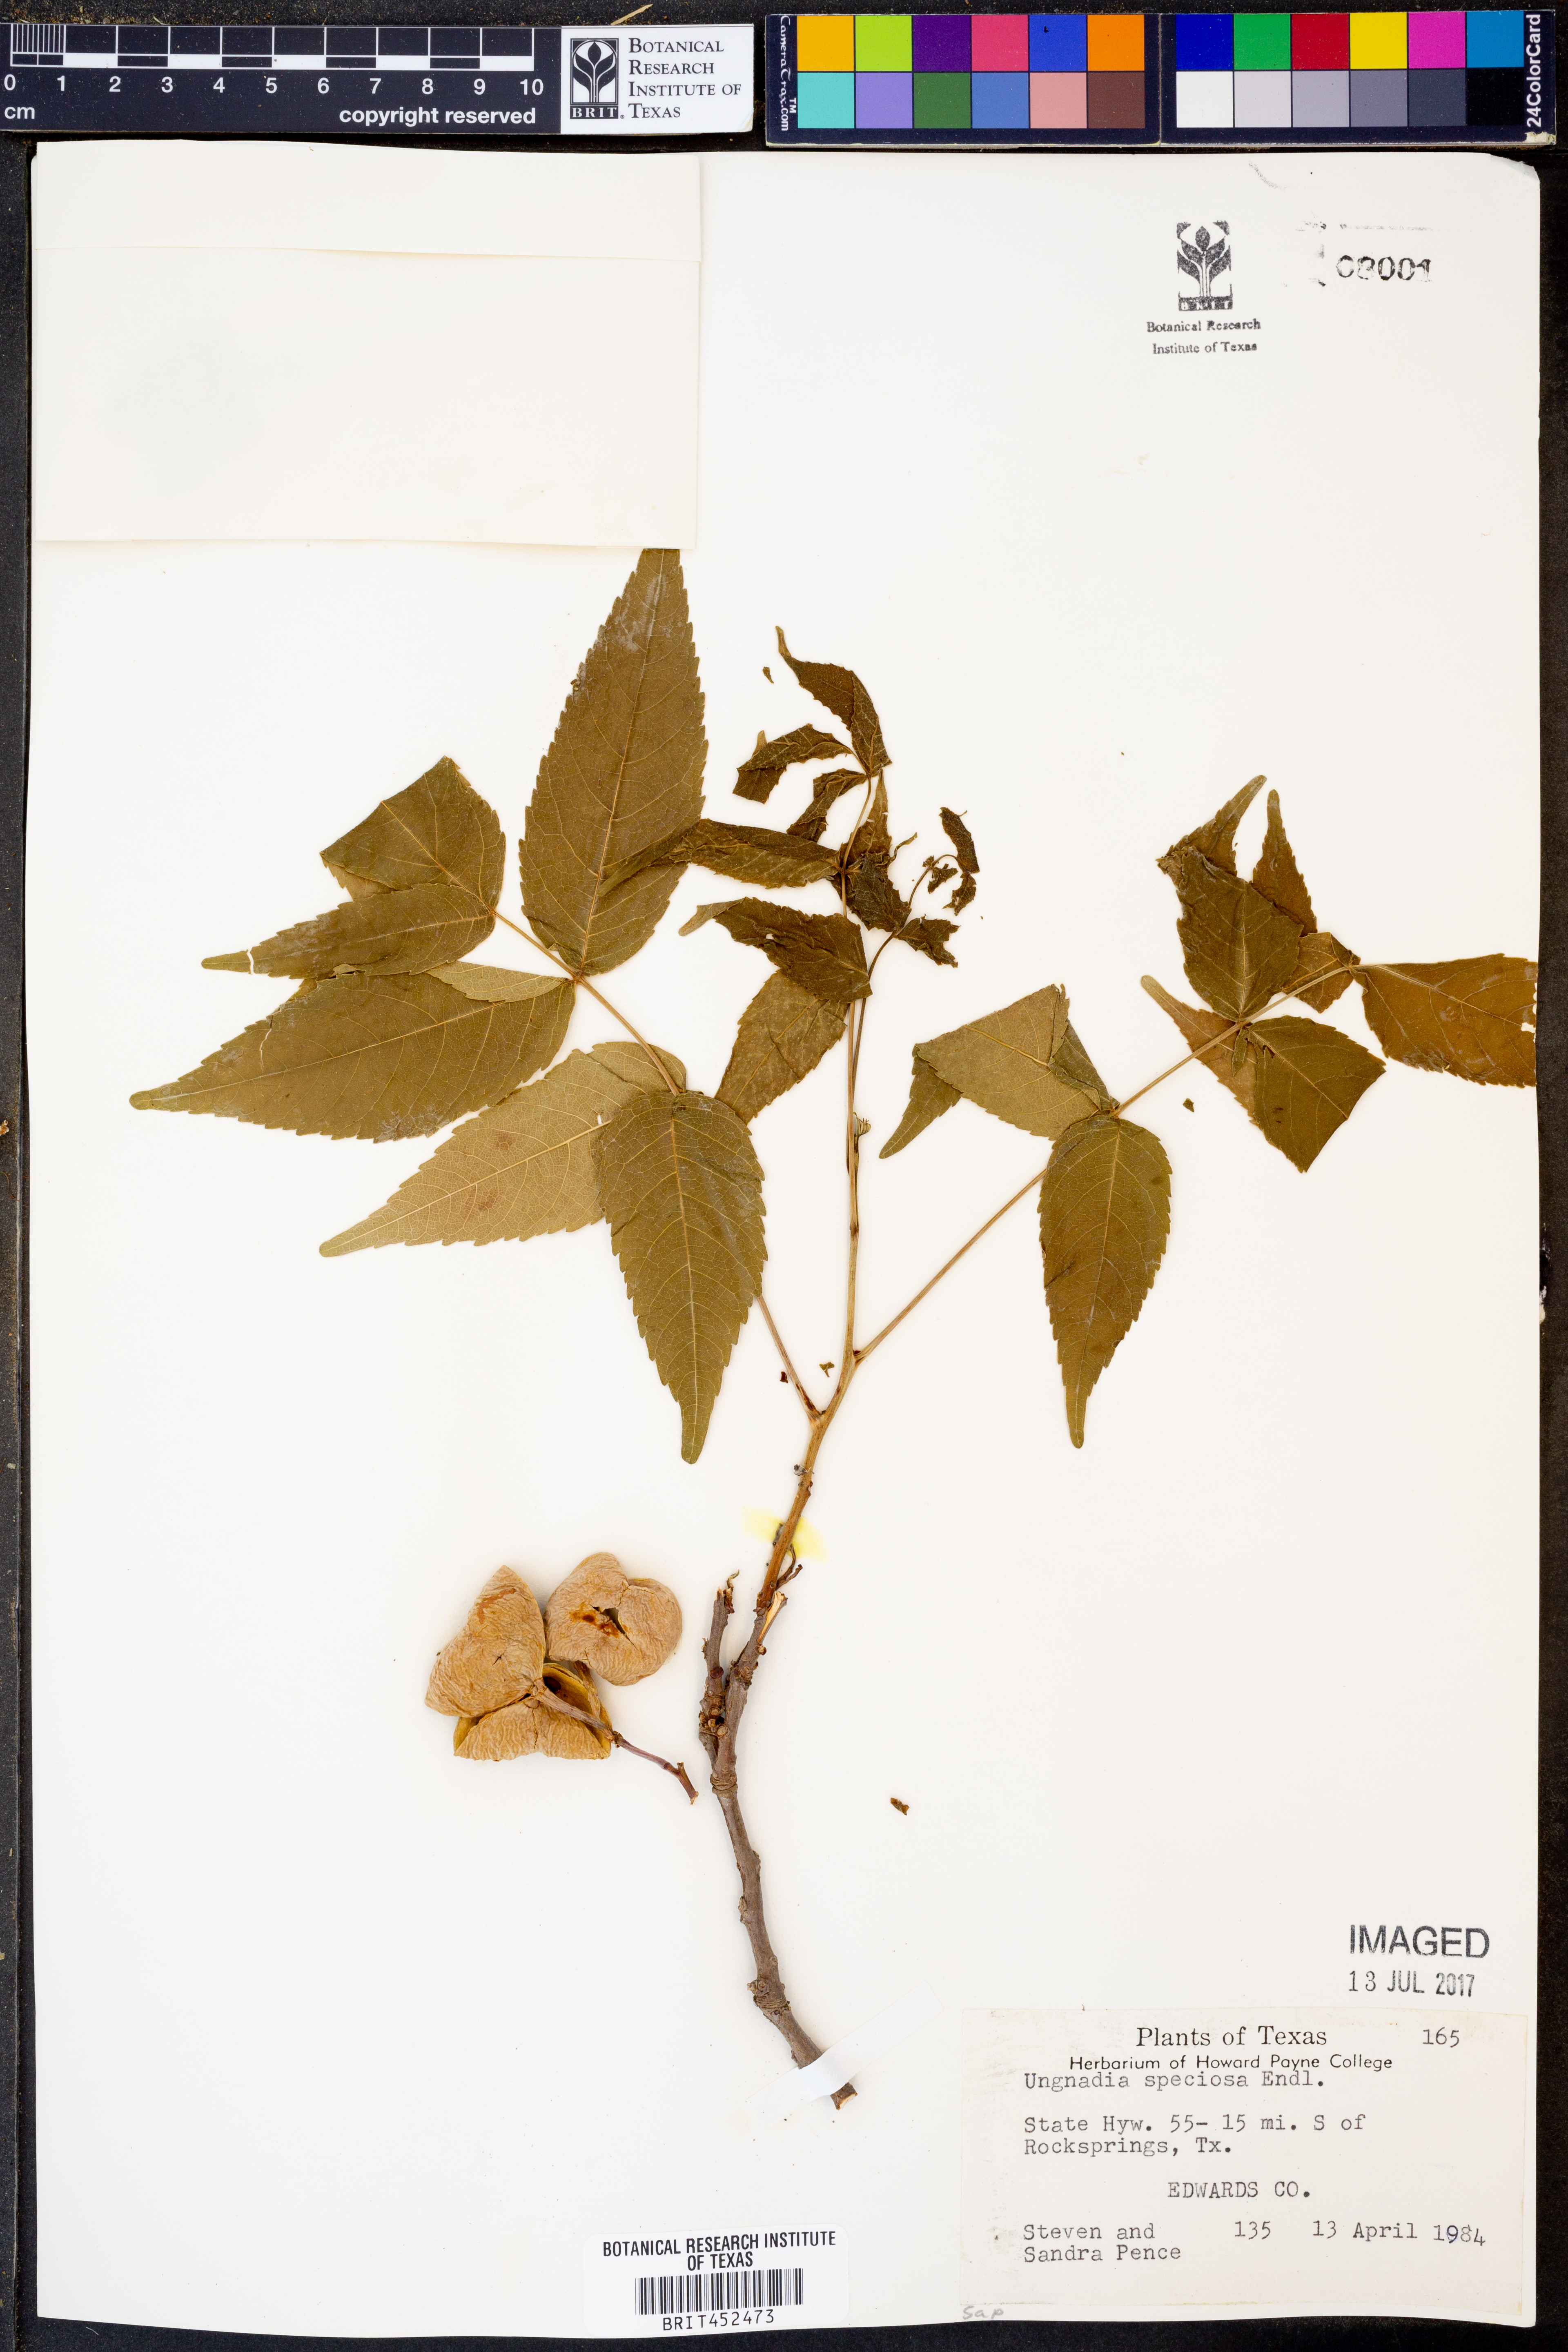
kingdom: Plantae
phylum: Tracheophyta
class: Magnoliopsida
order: Sapindales
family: Sapindaceae
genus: Ungnadia
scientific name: Ungnadia speciosa
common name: Texas-buckeye
